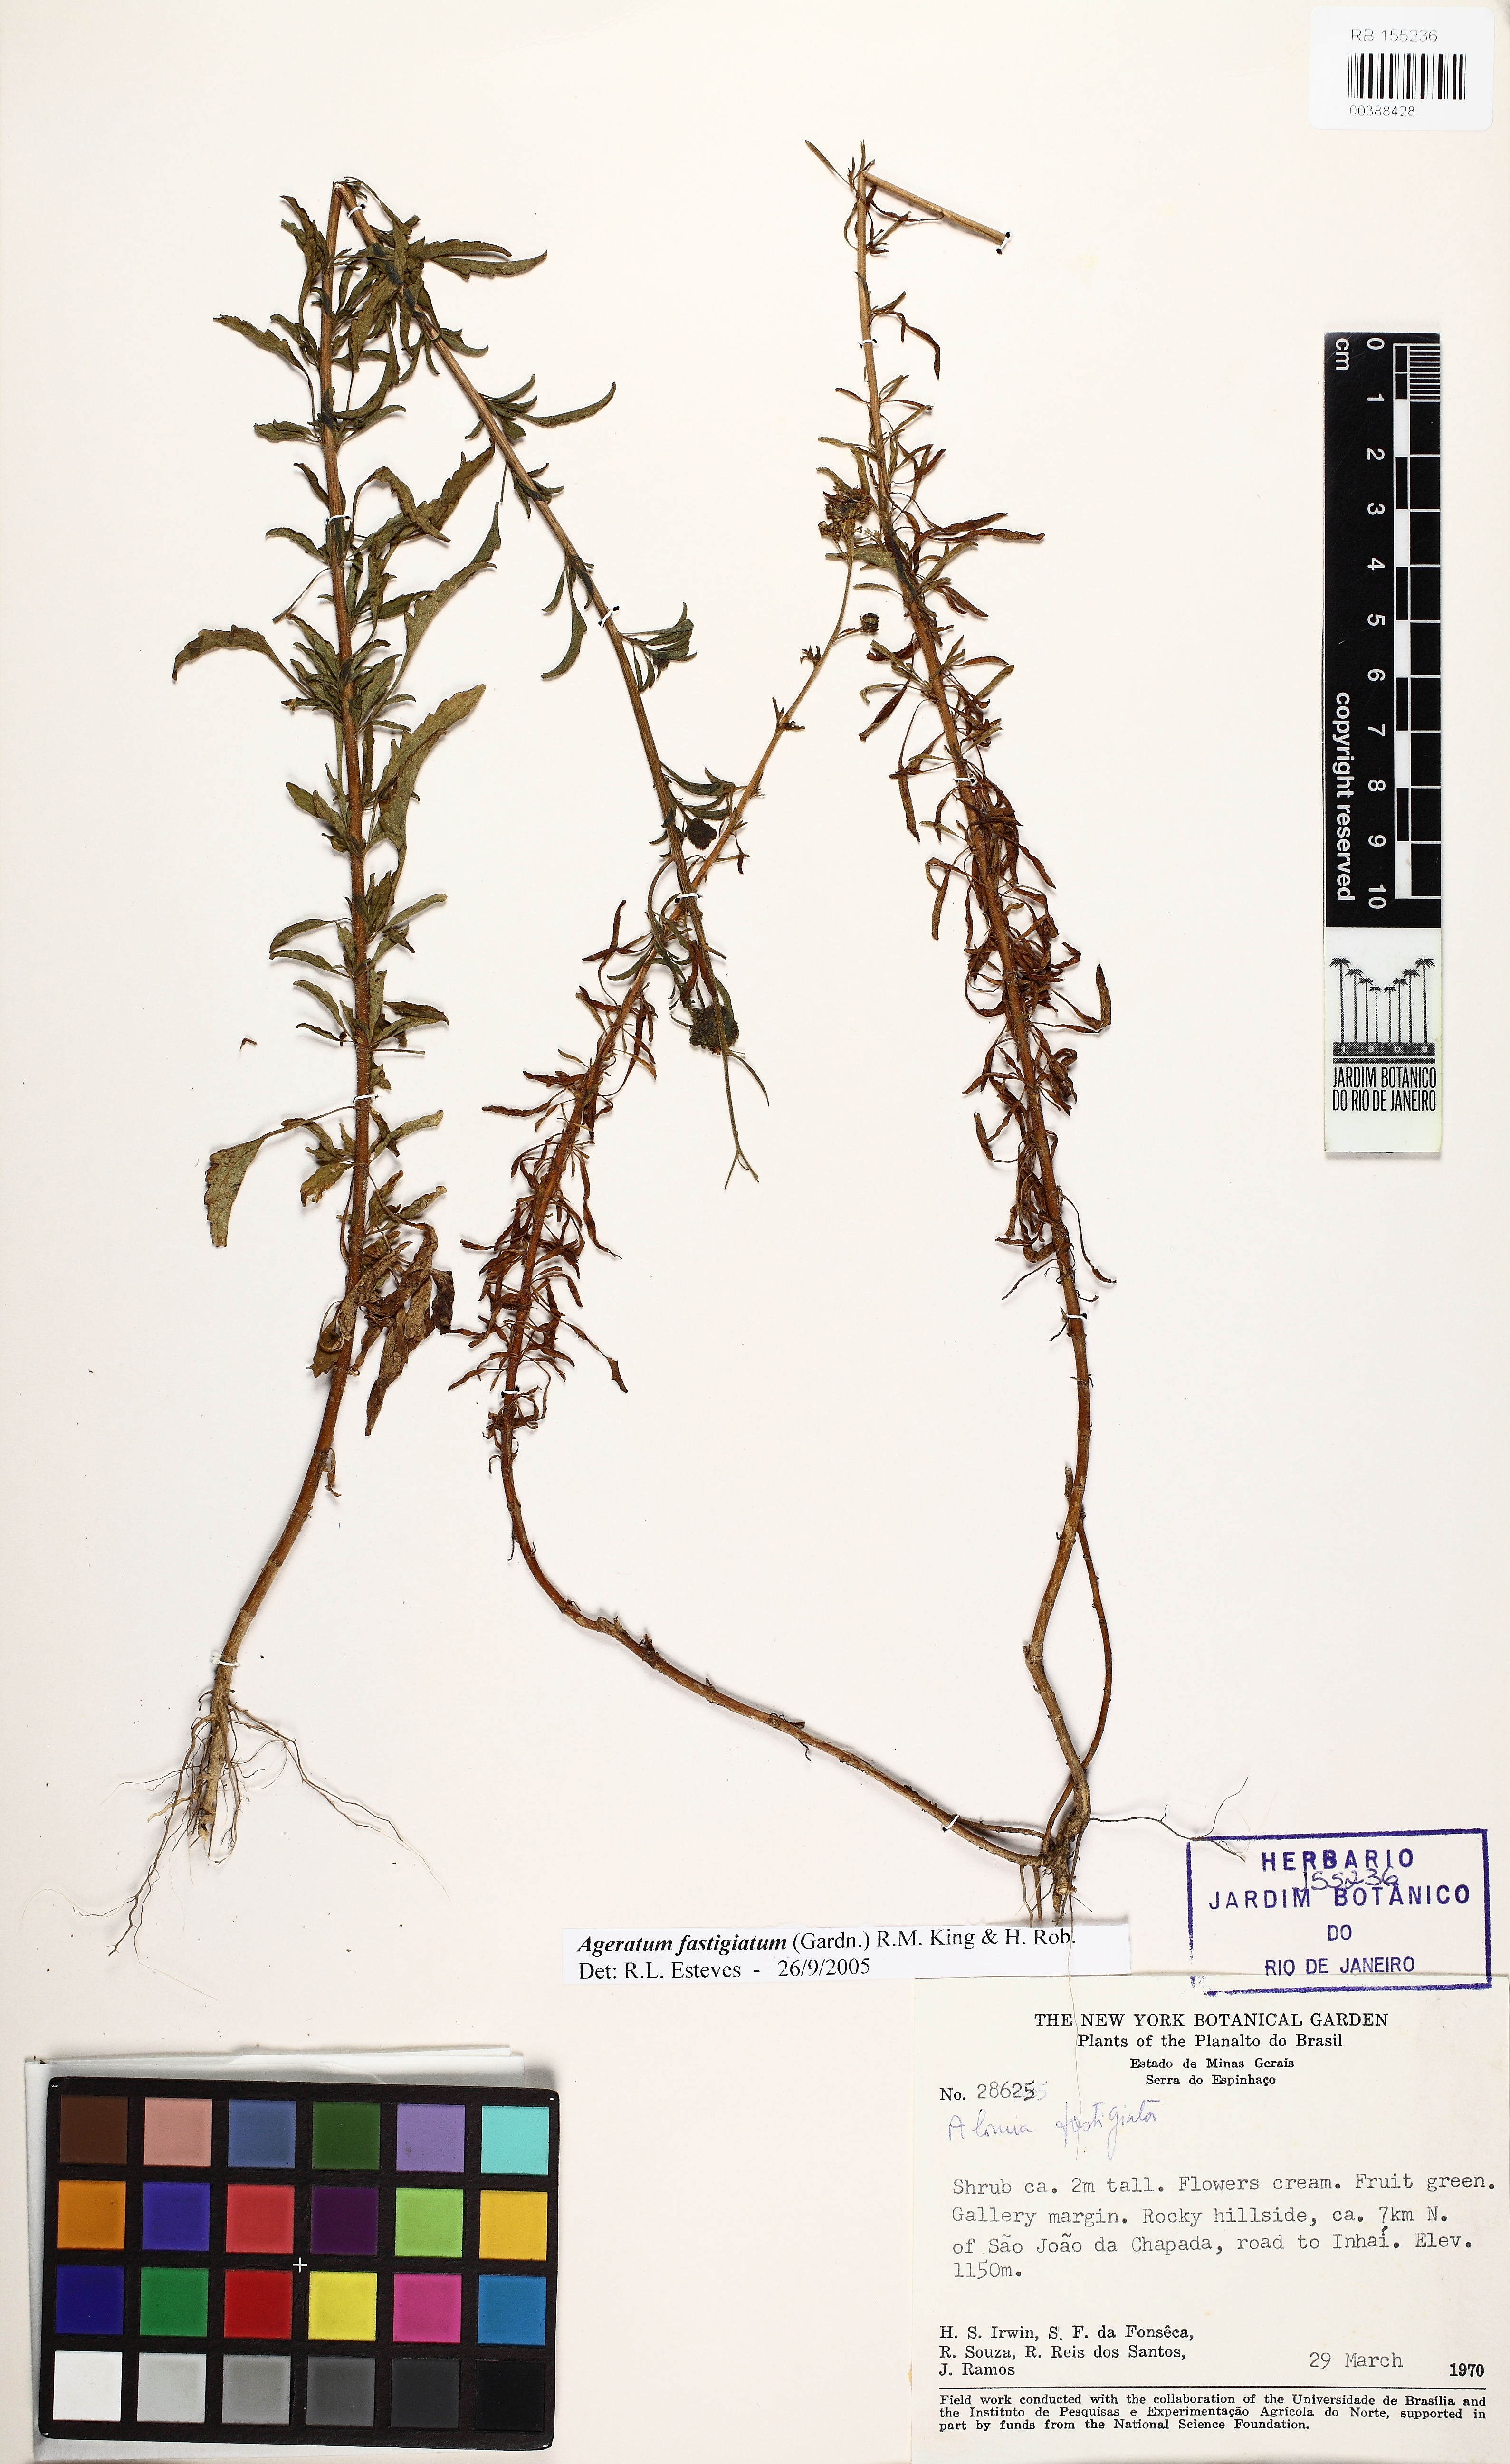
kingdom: Plantae
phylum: Tracheophyta
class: Magnoliopsida
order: Asterales
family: Asteraceae
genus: Ageratum
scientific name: Ageratum fastigiatum
